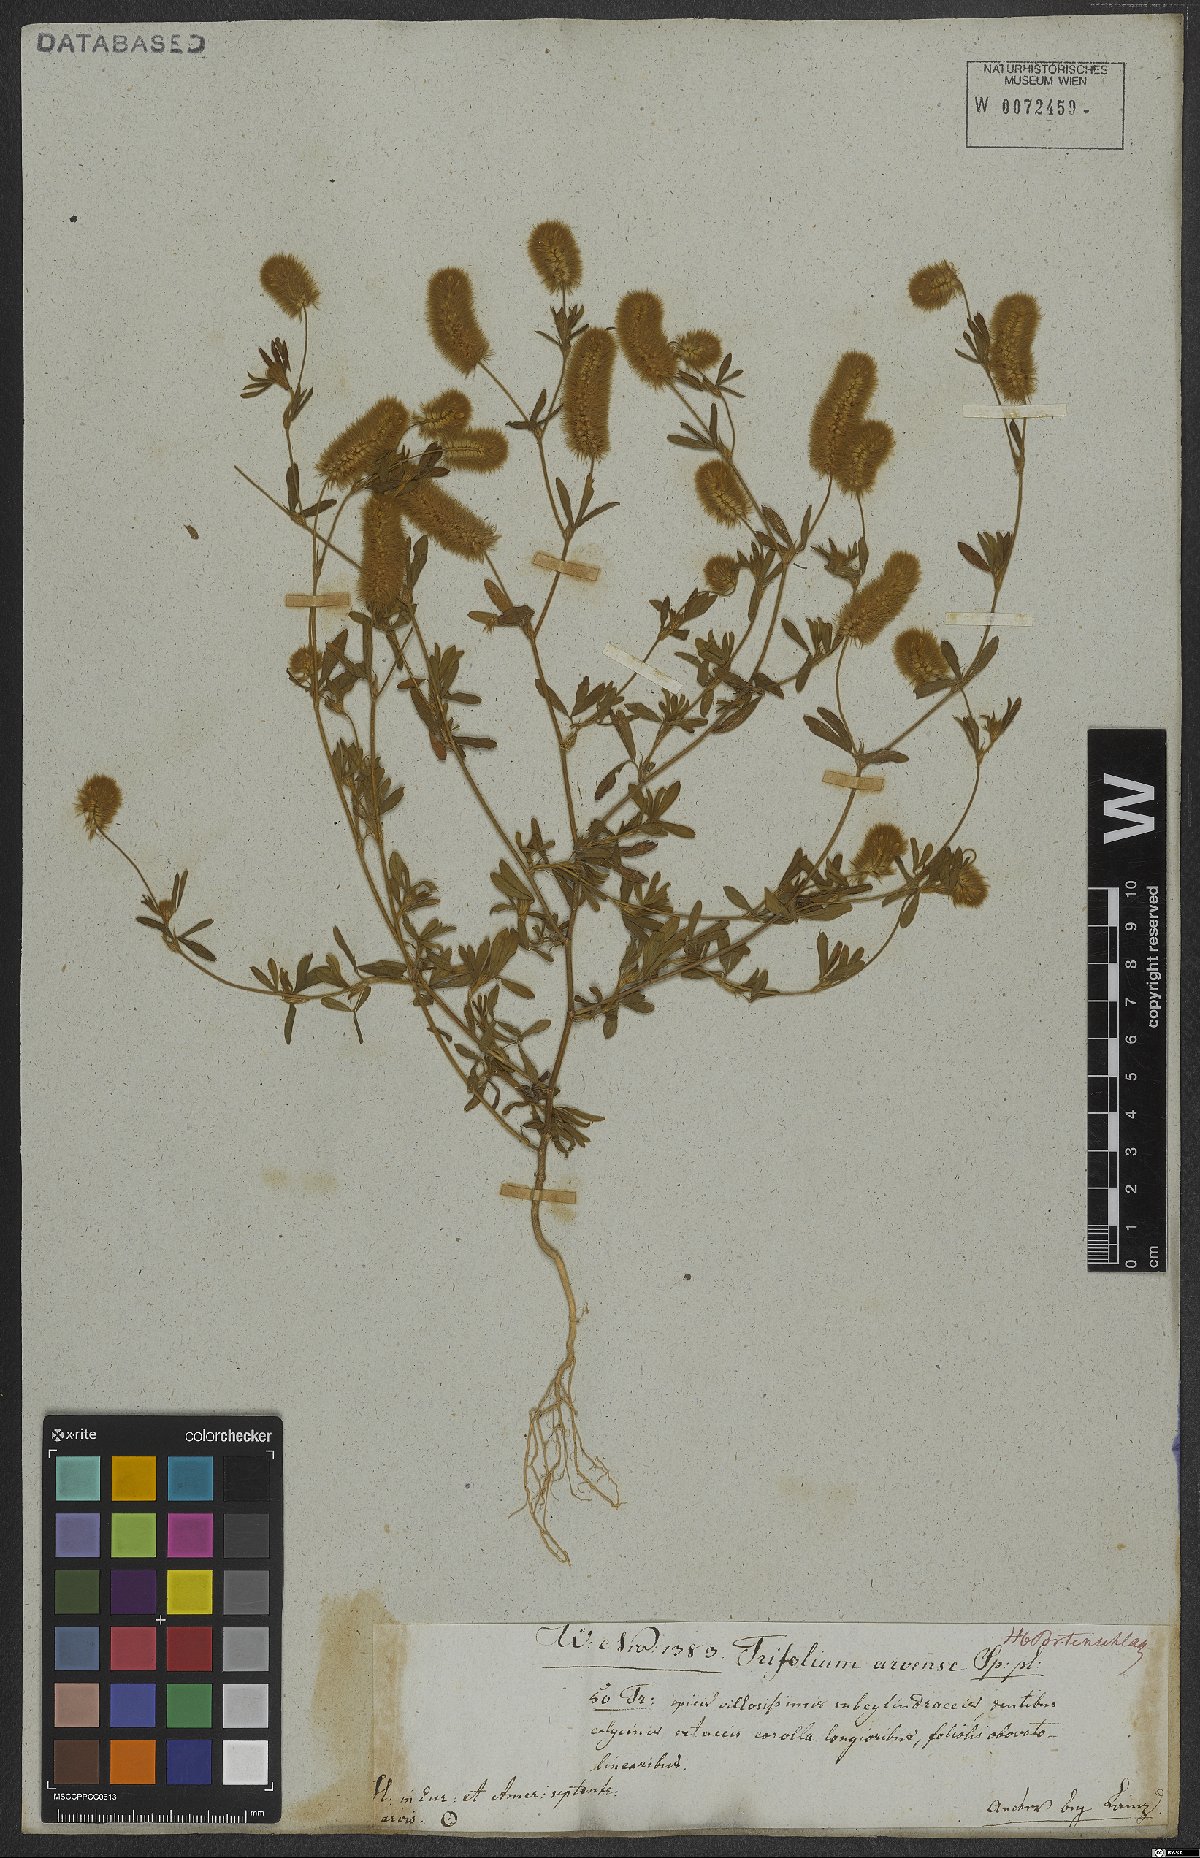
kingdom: Plantae
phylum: Tracheophyta
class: Magnoliopsida
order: Fabales
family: Fabaceae
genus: Trifolium
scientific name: Trifolium arvense
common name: Hare's-foot clover
